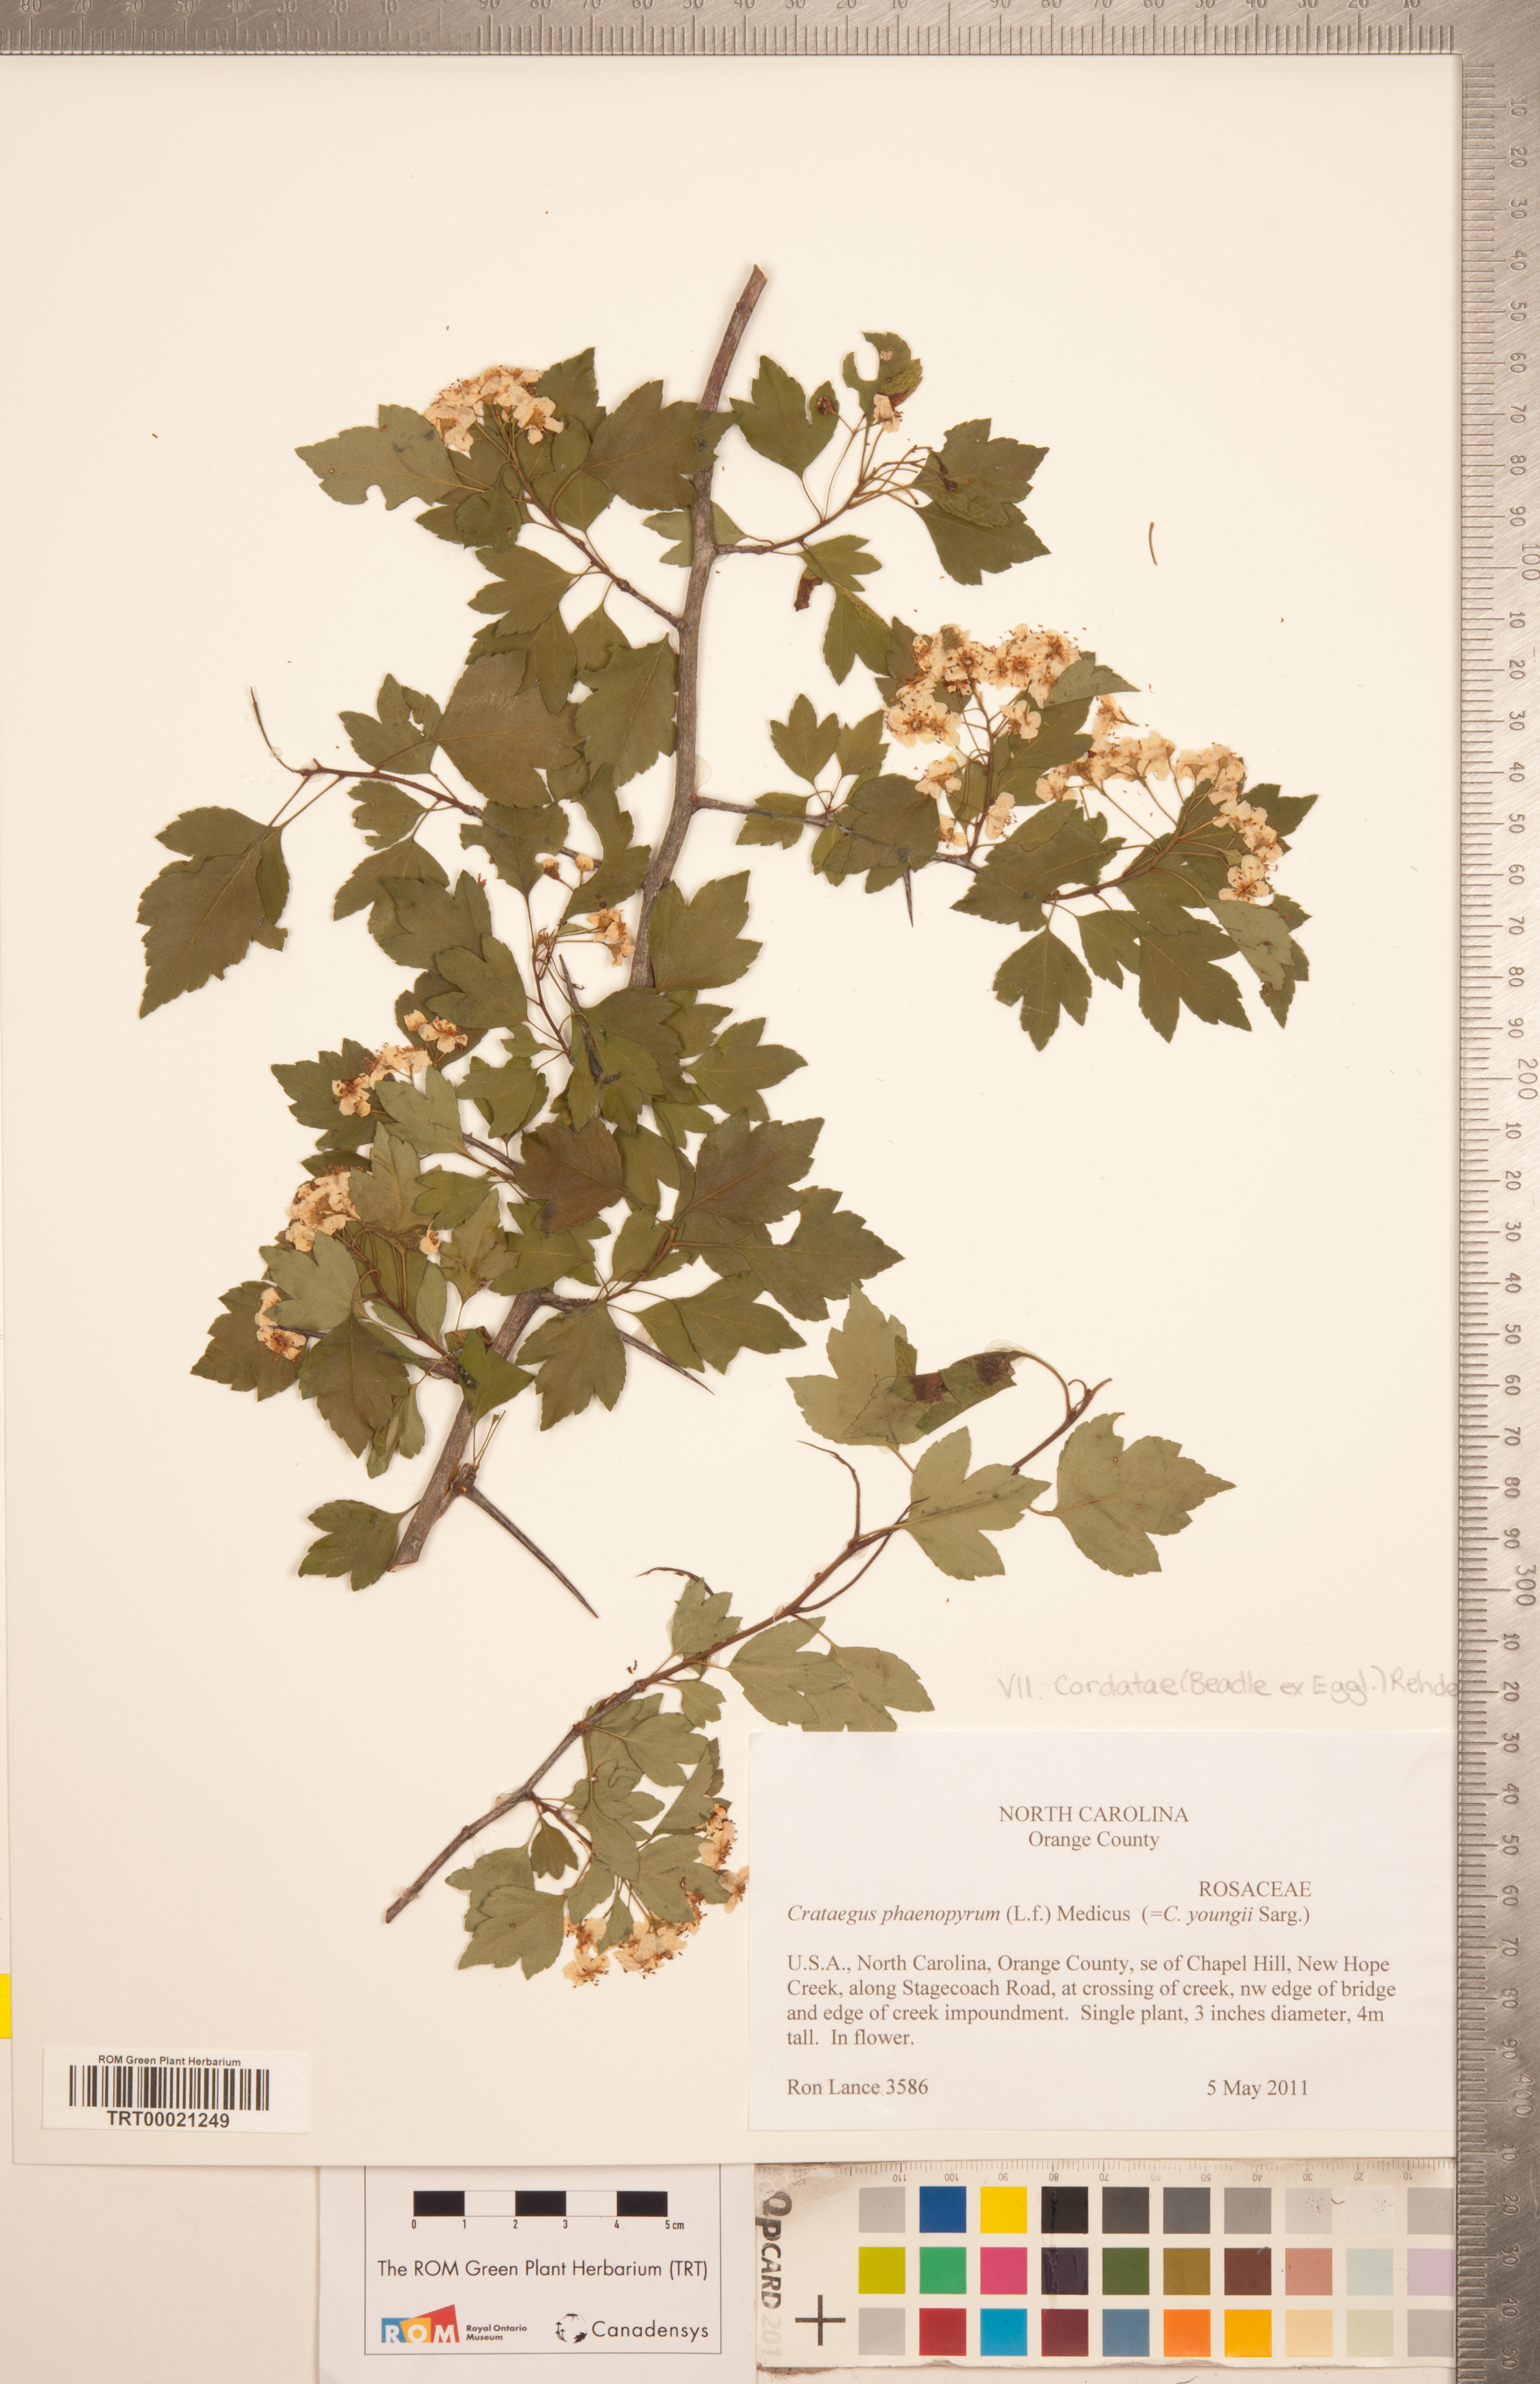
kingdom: Plantae
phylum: Tracheophyta
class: Magnoliopsida
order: Rosales
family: Rosaceae
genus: Crataegus
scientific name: Crataegus phaenopyrum
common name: Washington hawthorn
